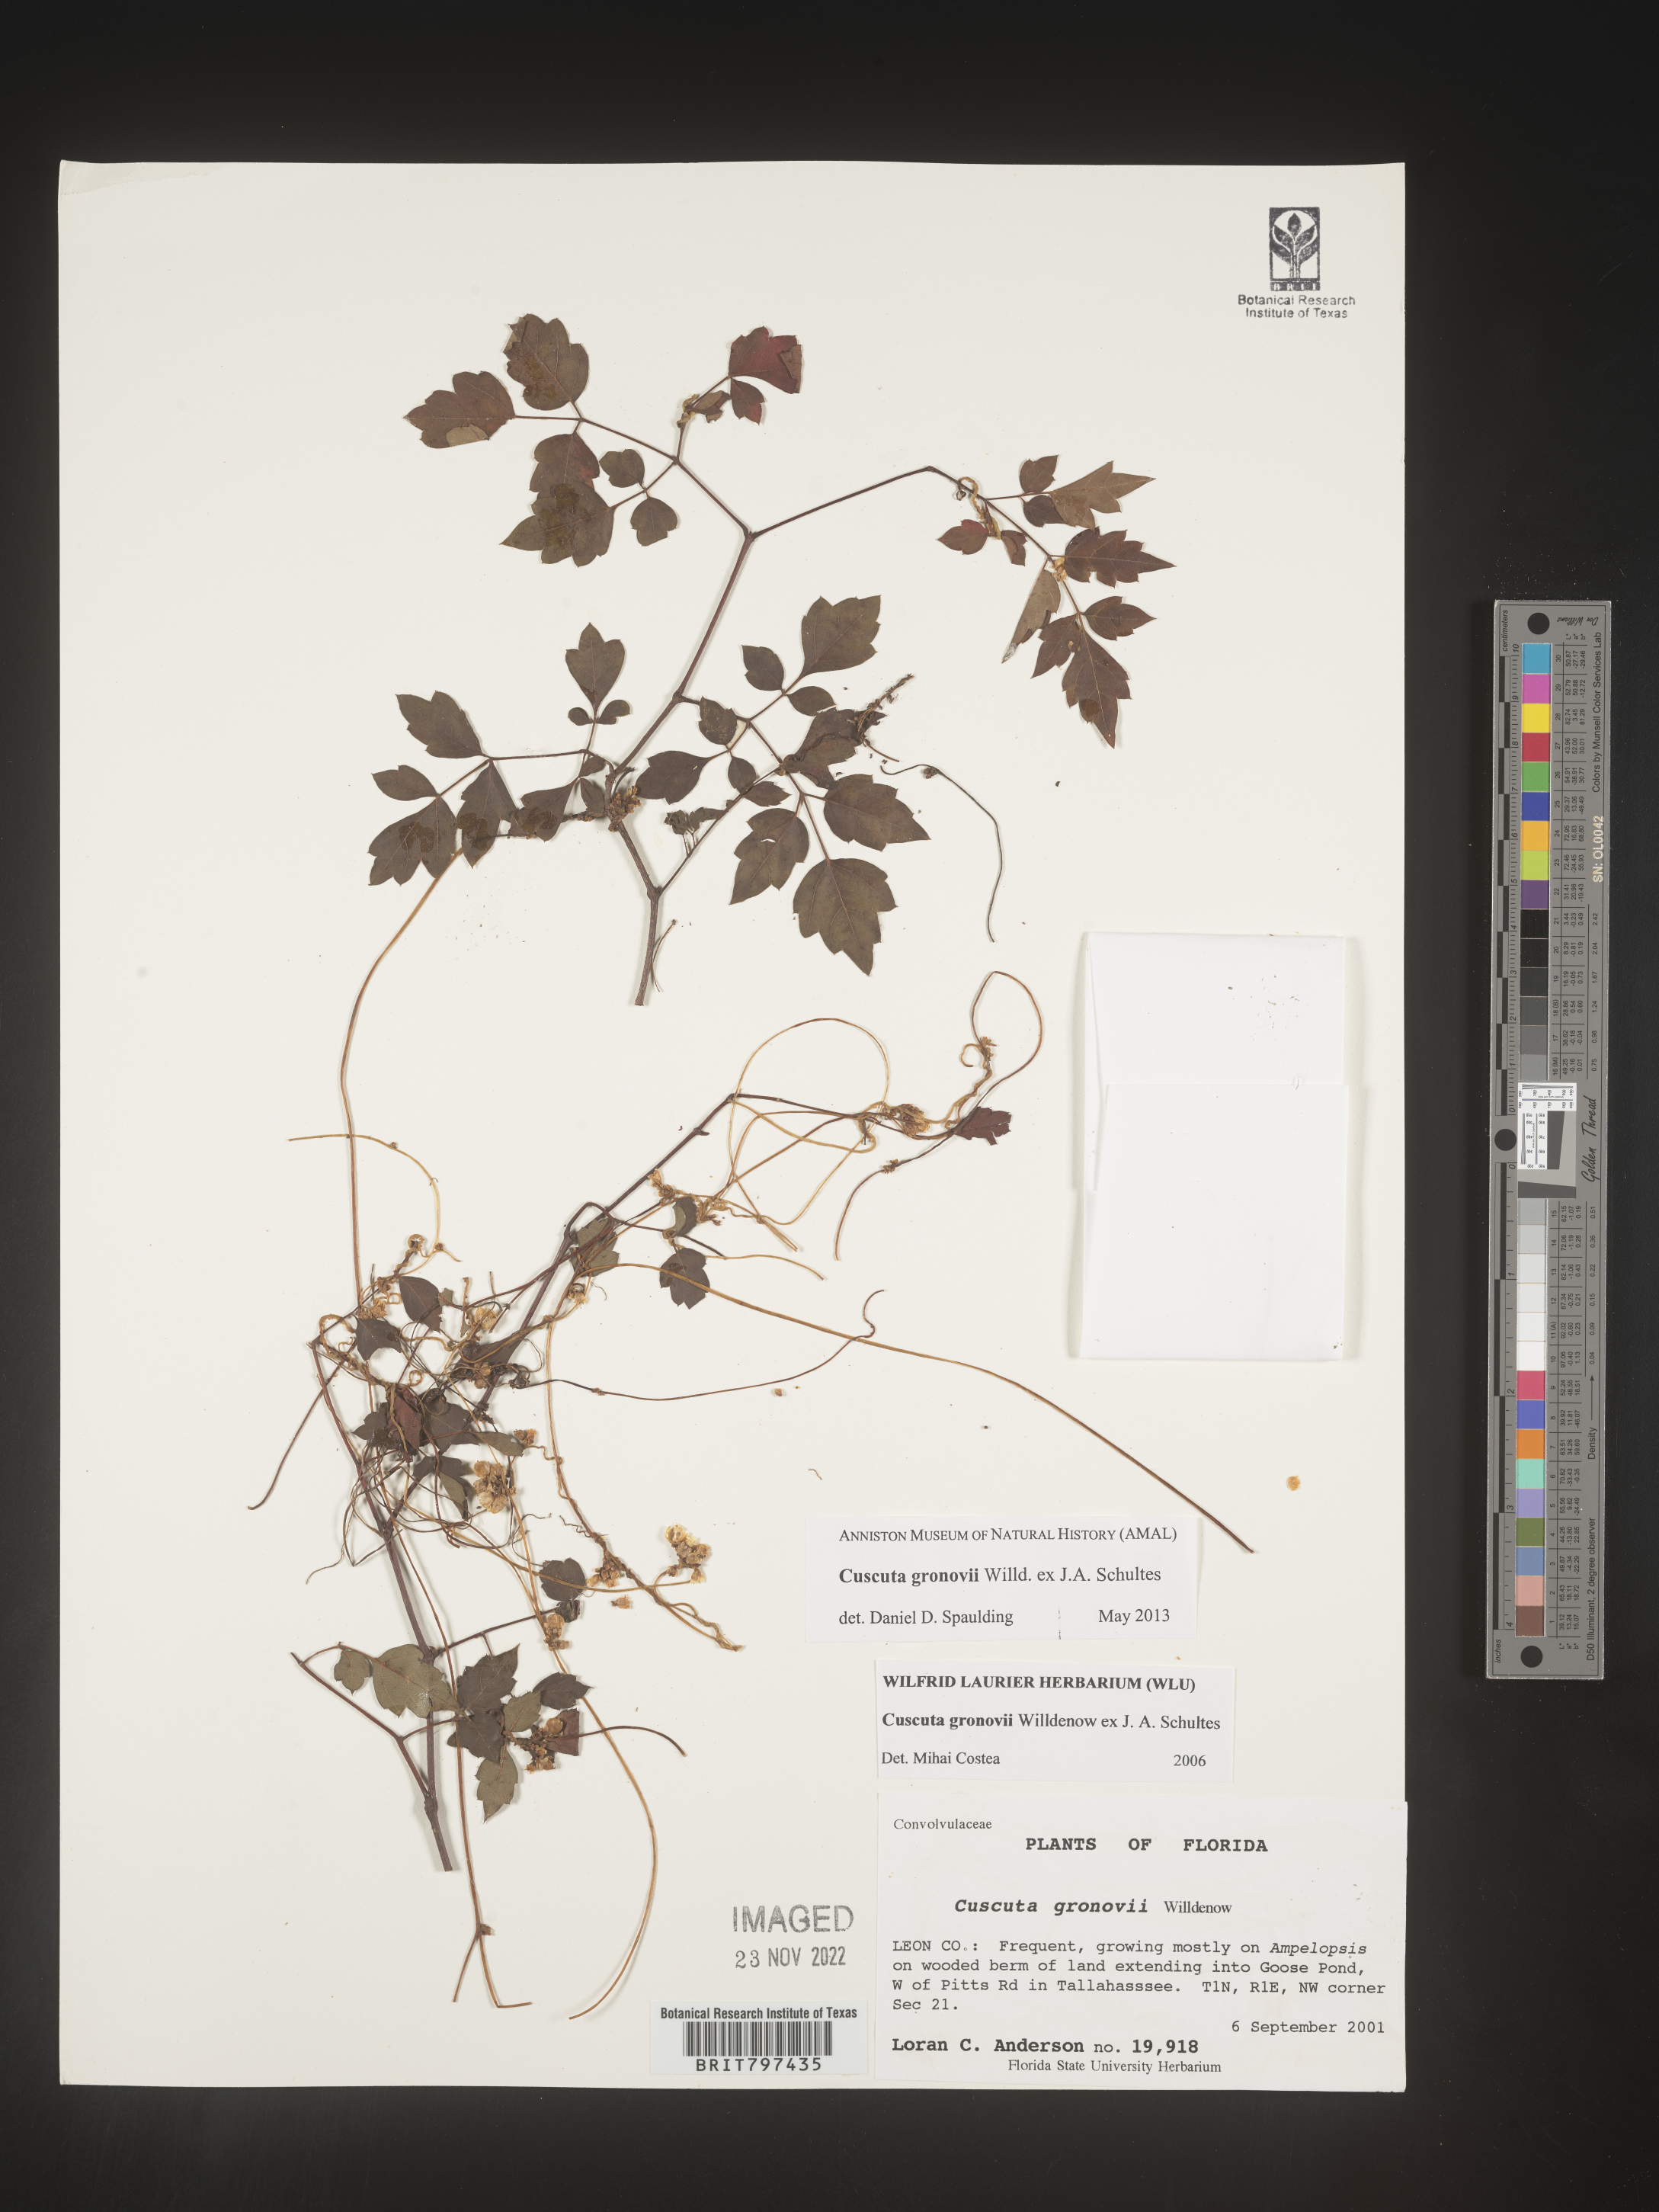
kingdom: Plantae
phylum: Tracheophyta
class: Magnoliopsida
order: Solanales
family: Convolvulaceae
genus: Cuscuta
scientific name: Cuscuta gronovii
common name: Common dodder
